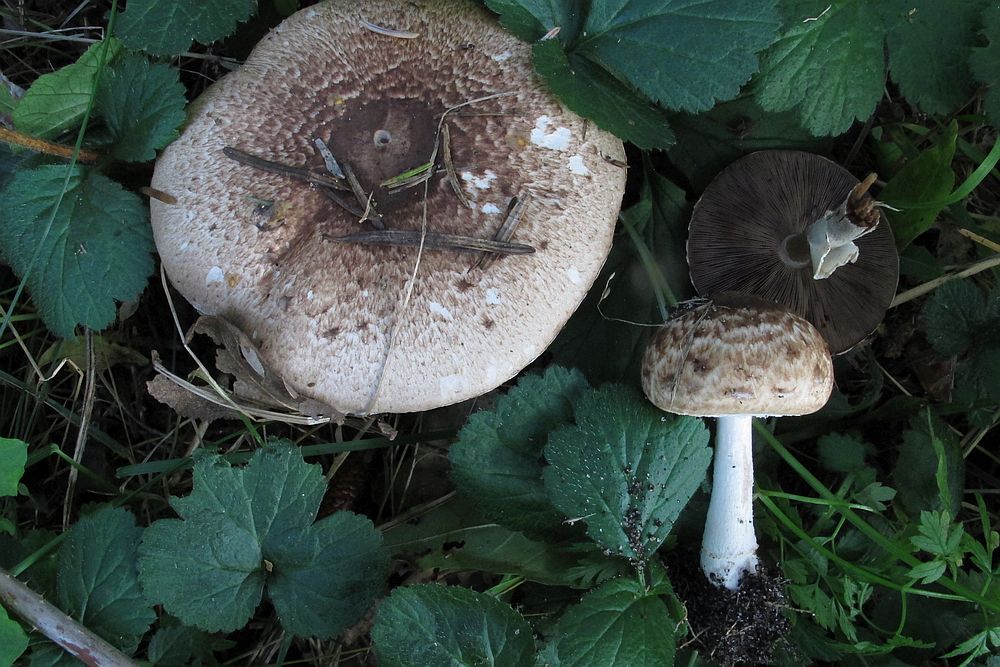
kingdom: Fungi
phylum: Basidiomycota
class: Agaricomycetes
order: Agaricales
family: Agaricaceae
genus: Agaricus
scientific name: Agaricus impudicus
